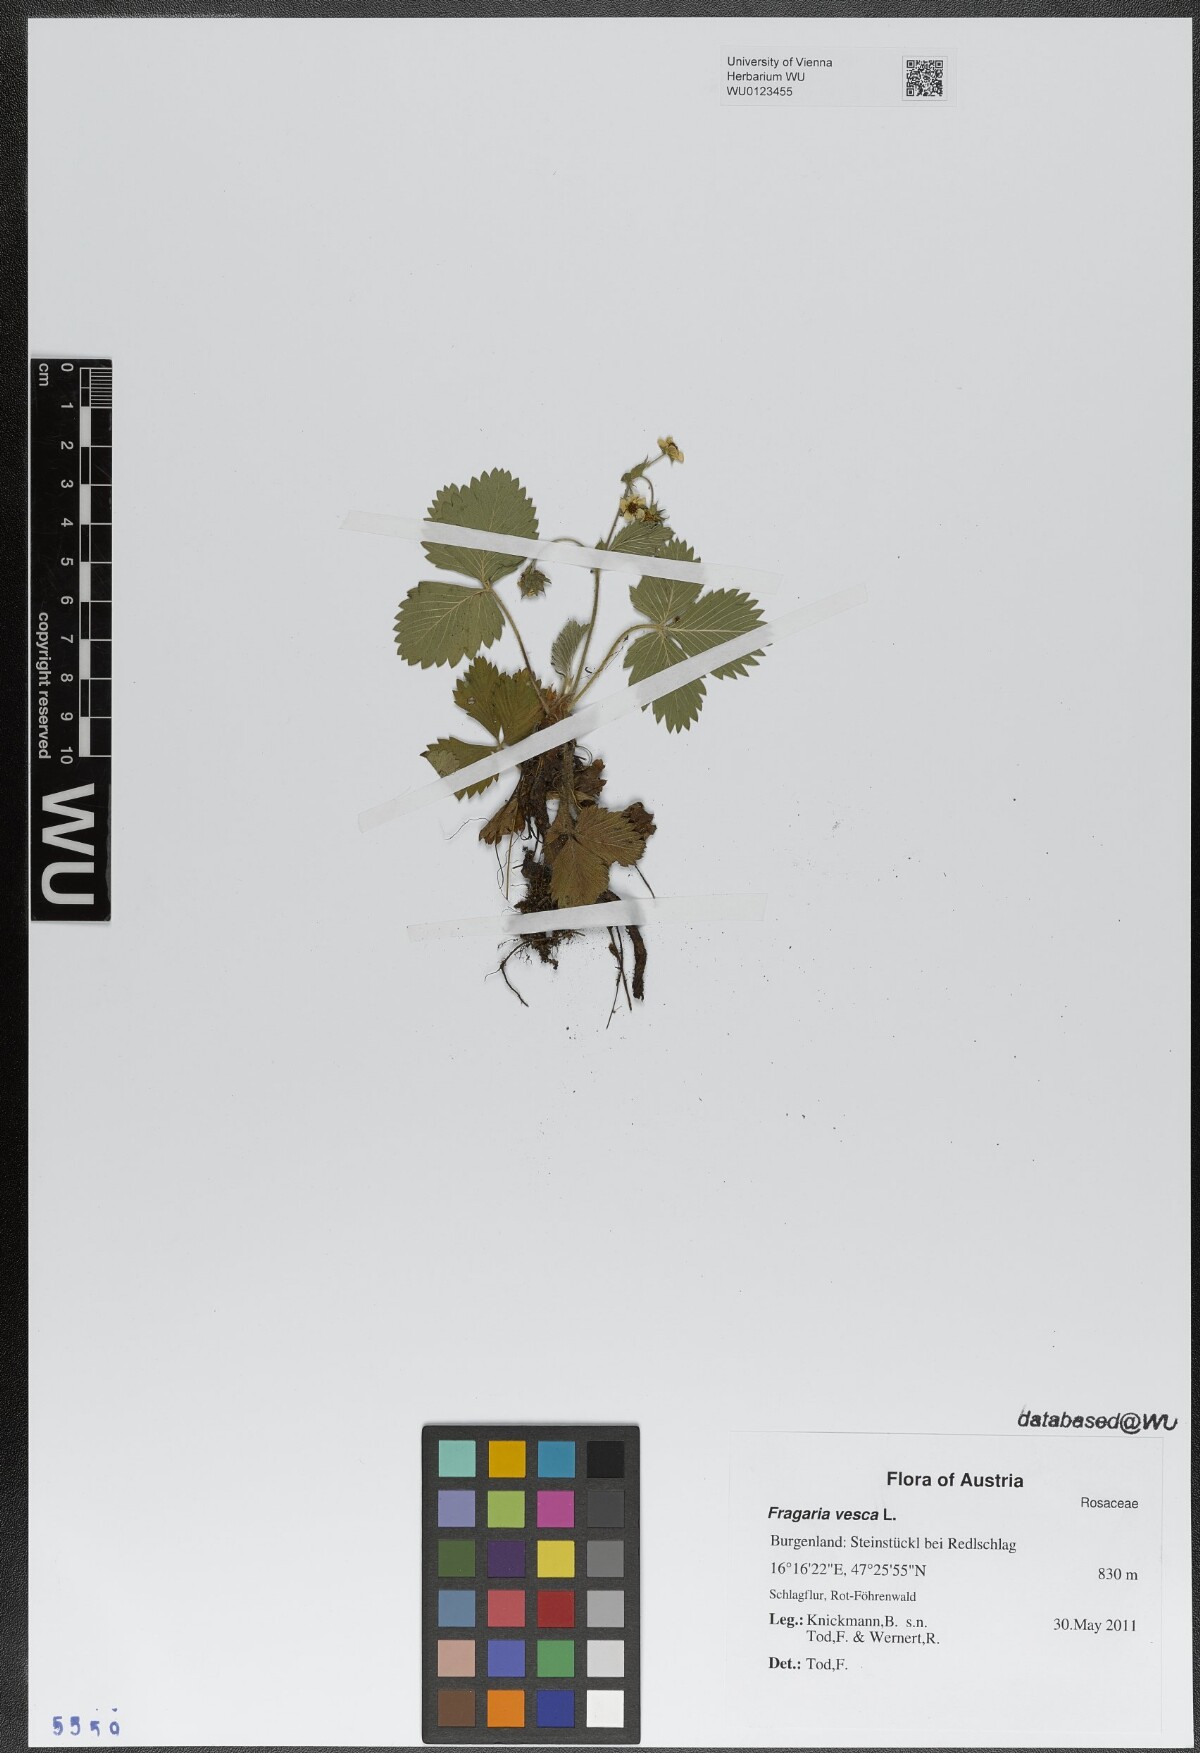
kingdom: Plantae
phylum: Tracheophyta
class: Magnoliopsida
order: Rosales
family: Rosaceae
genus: Fragaria
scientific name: Fragaria vesca
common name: Wild strawberry
